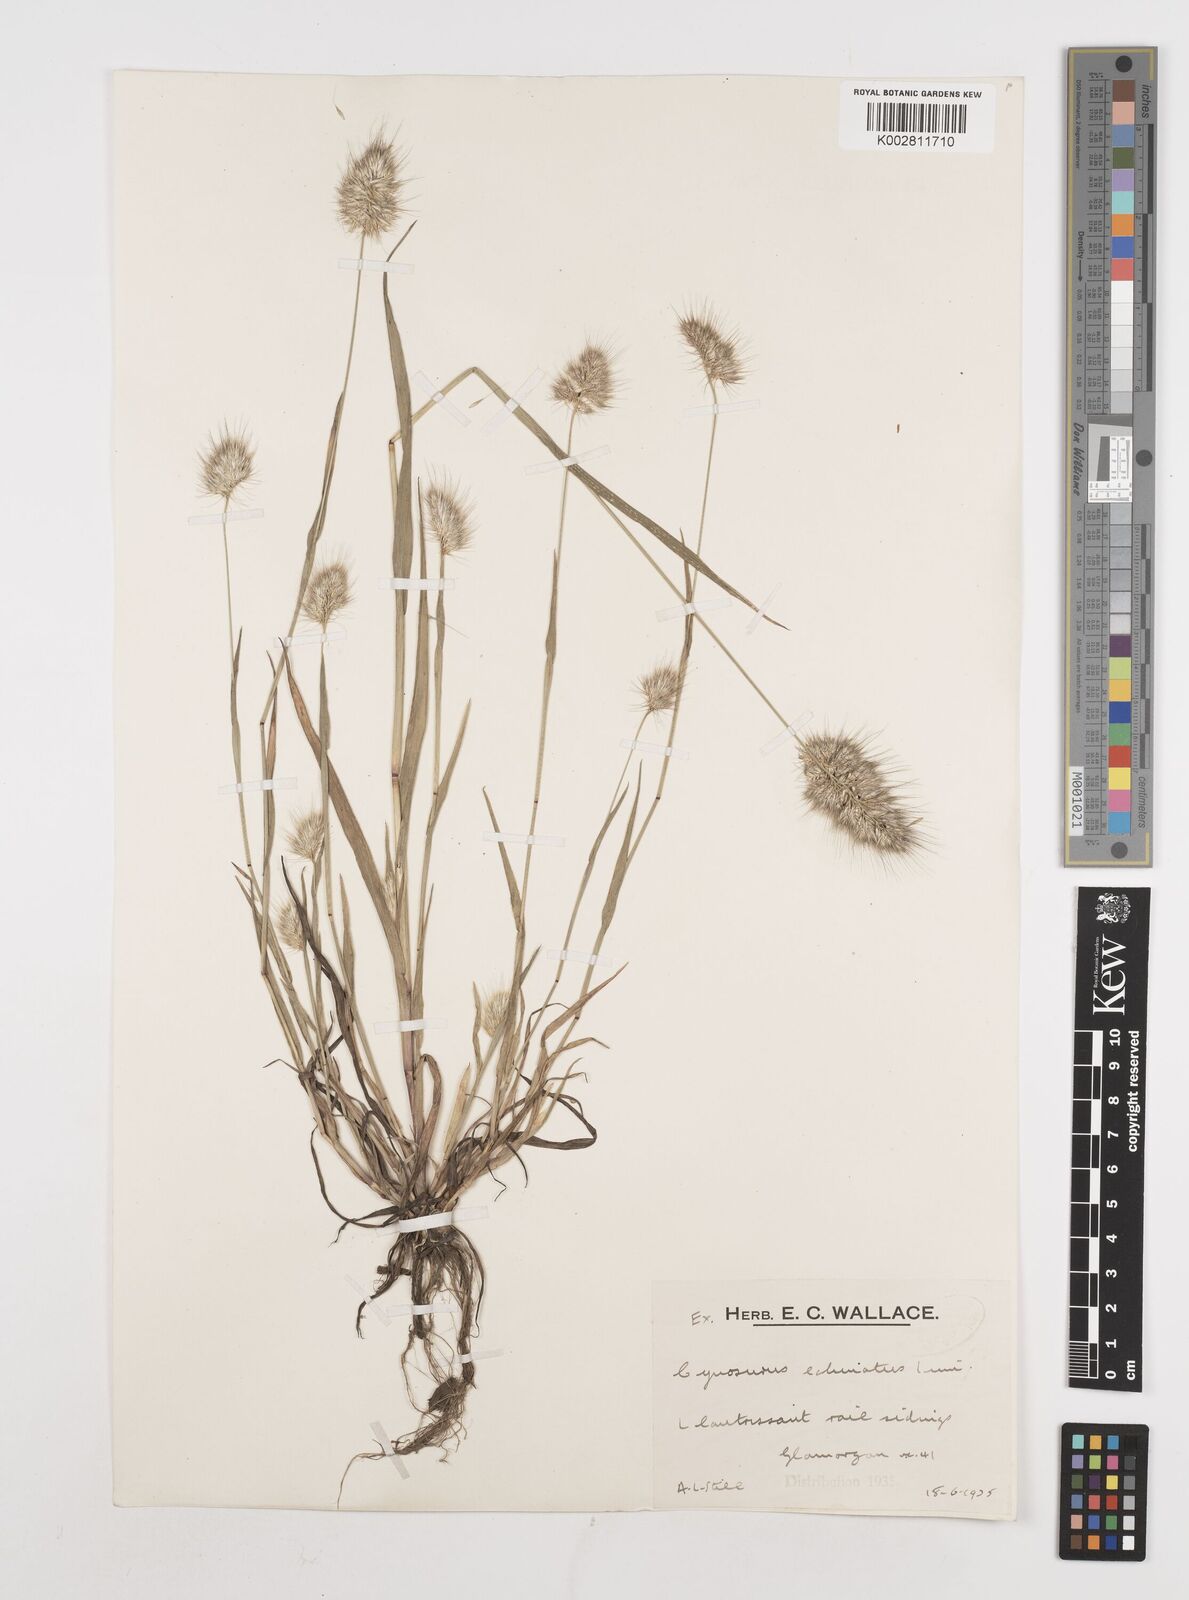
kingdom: Plantae
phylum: Tracheophyta
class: Liliopsida
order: Poales
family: Poaceae
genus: Cynosurus
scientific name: Cynosurus echinatus
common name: Rough dog's-tail
